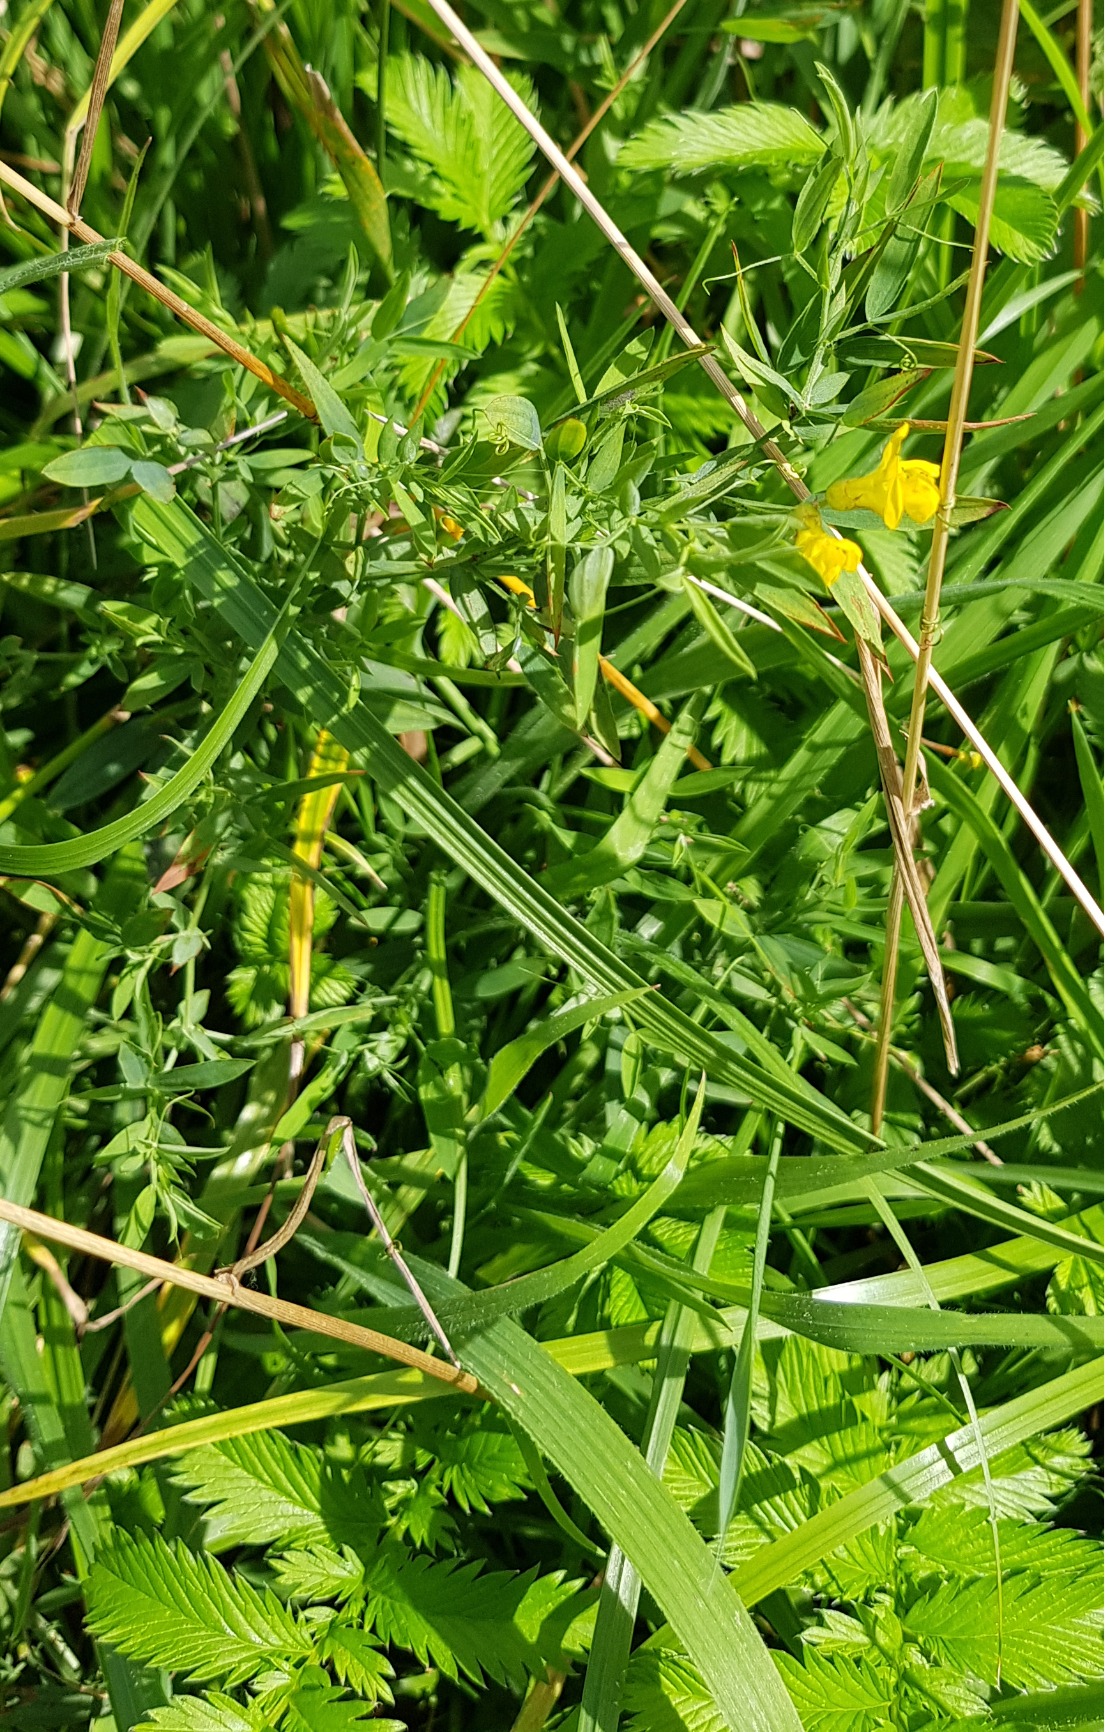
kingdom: Plantae
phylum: Tracheophyta
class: Magnoliopsida
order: Fabales
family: Fabaceae
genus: Lathyrus
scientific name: Lathyrus pratensis
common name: Gul fladbælg
